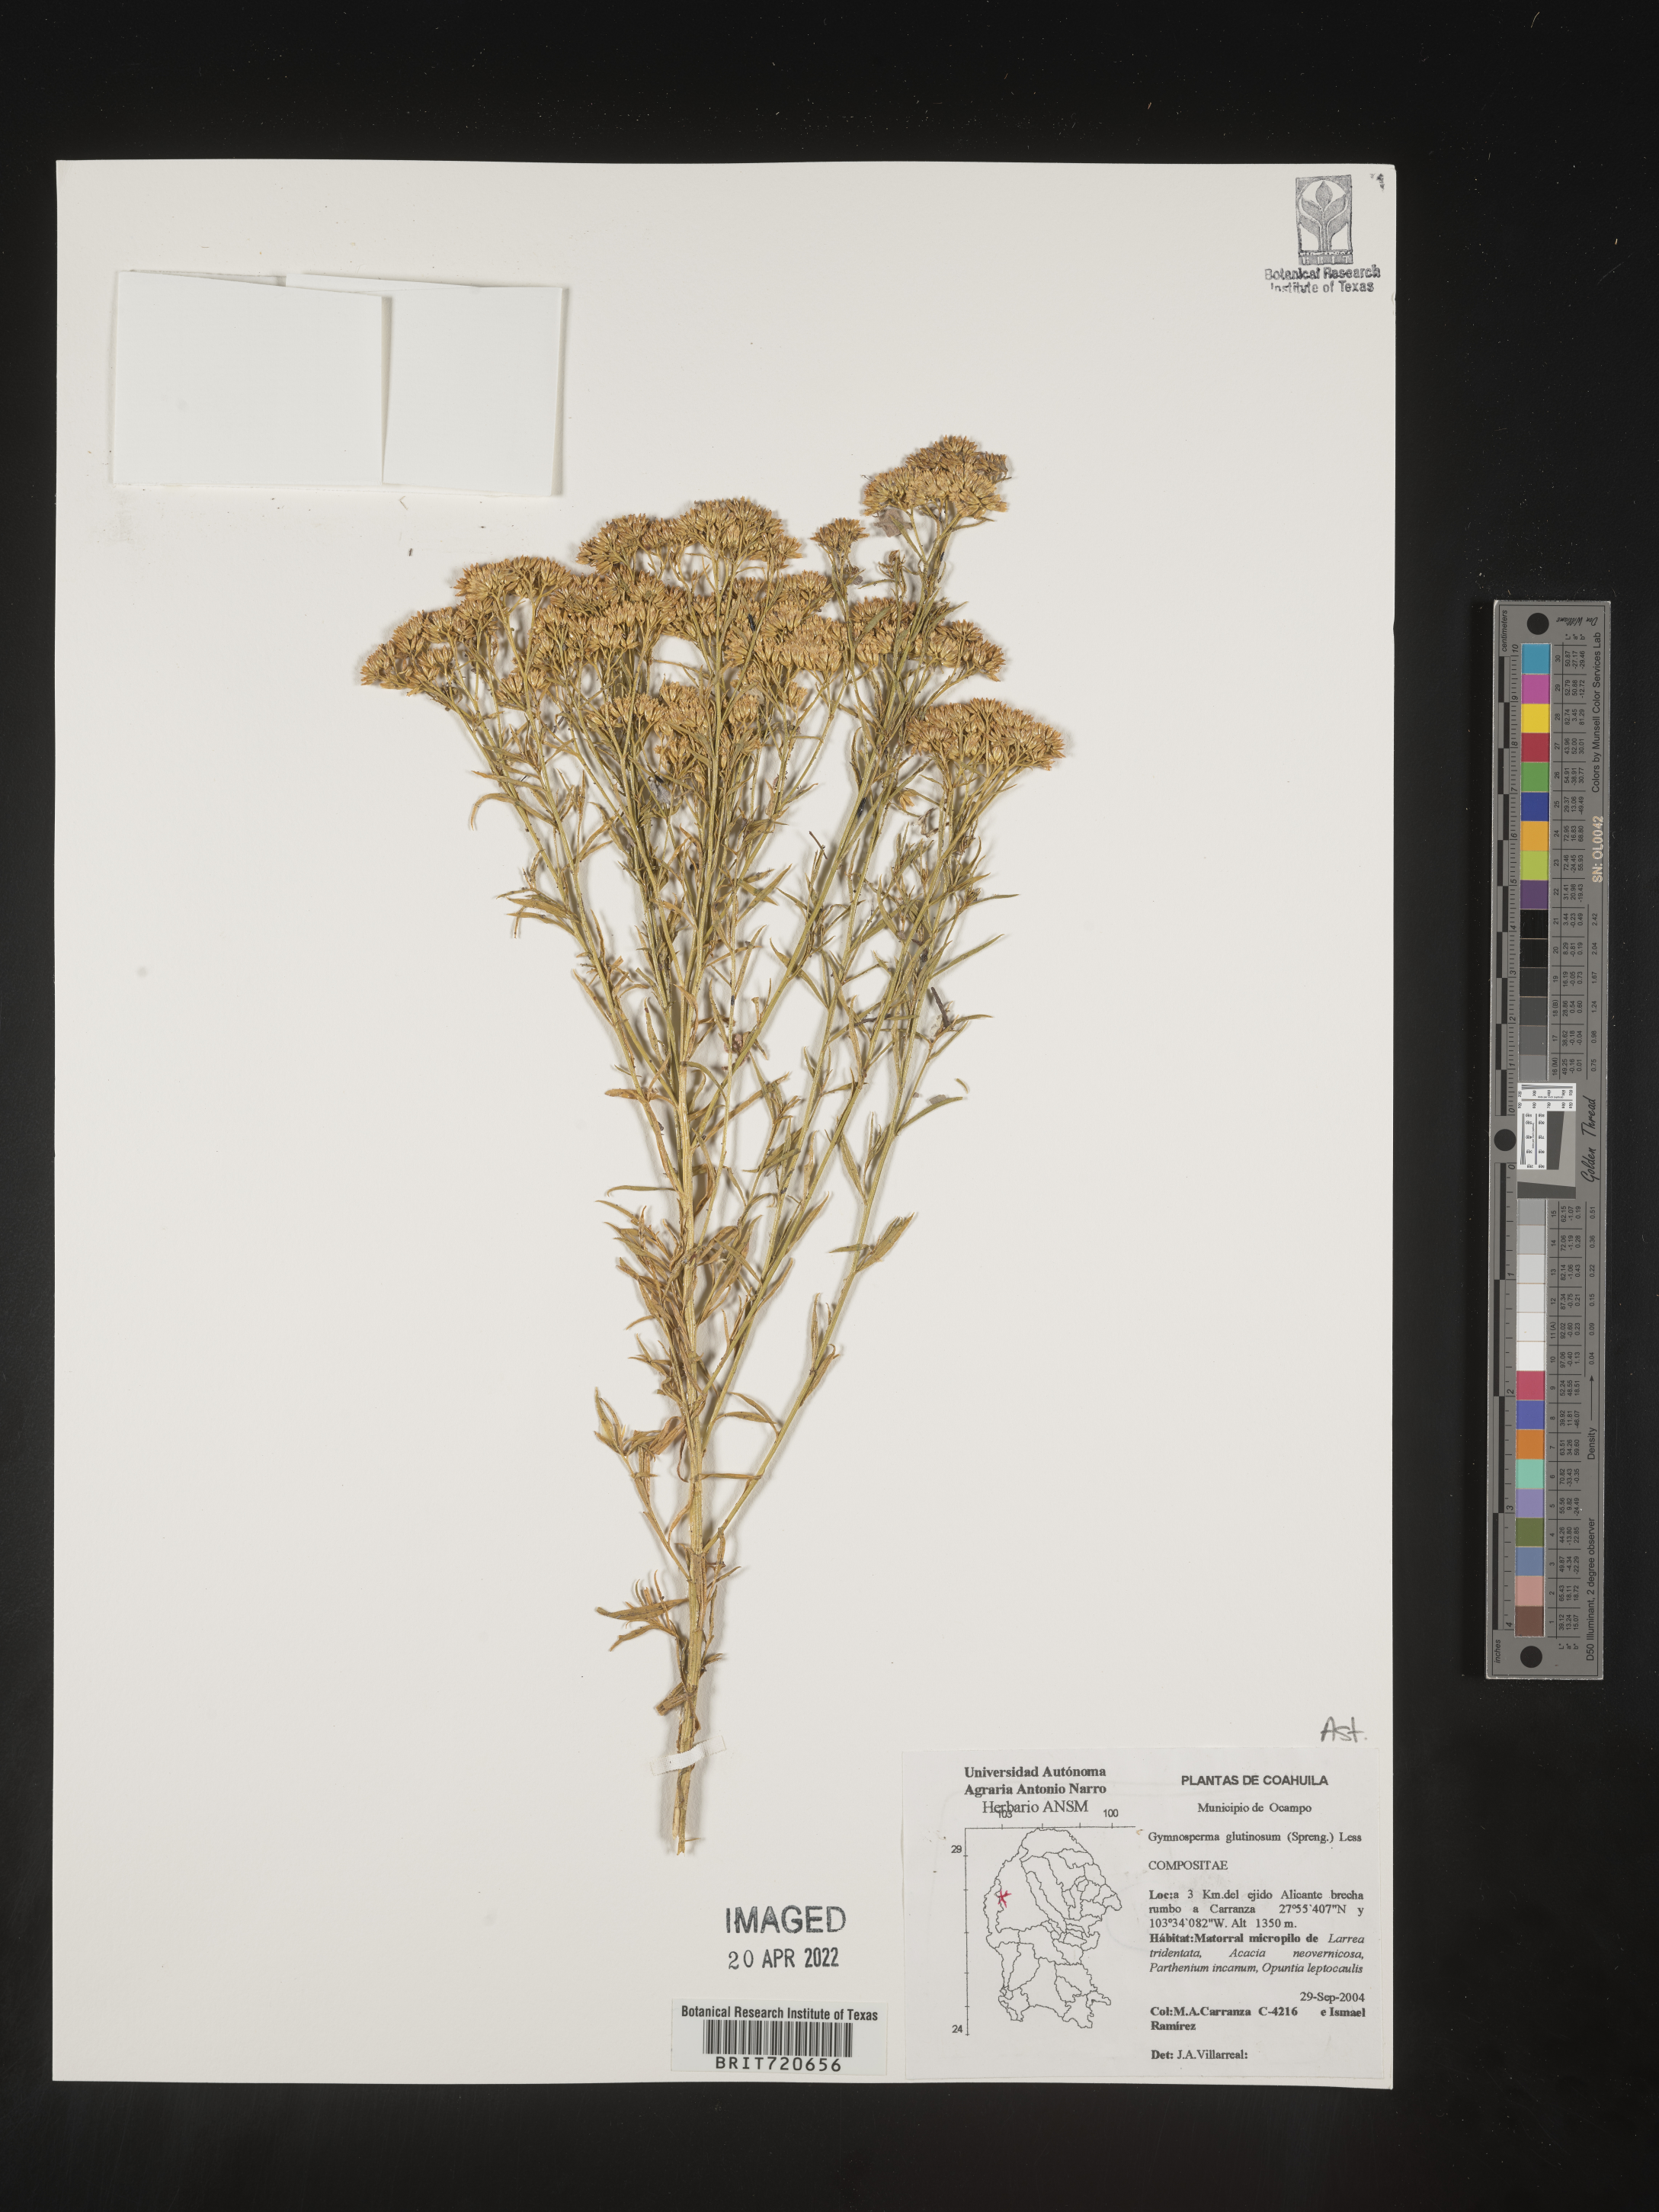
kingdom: Plantae
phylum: Tracheophyta
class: Magnoliopsida
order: Asterales
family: Asteraceae
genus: Gymnosperma
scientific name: Gymnosperma glutinosum
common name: Gumhead
